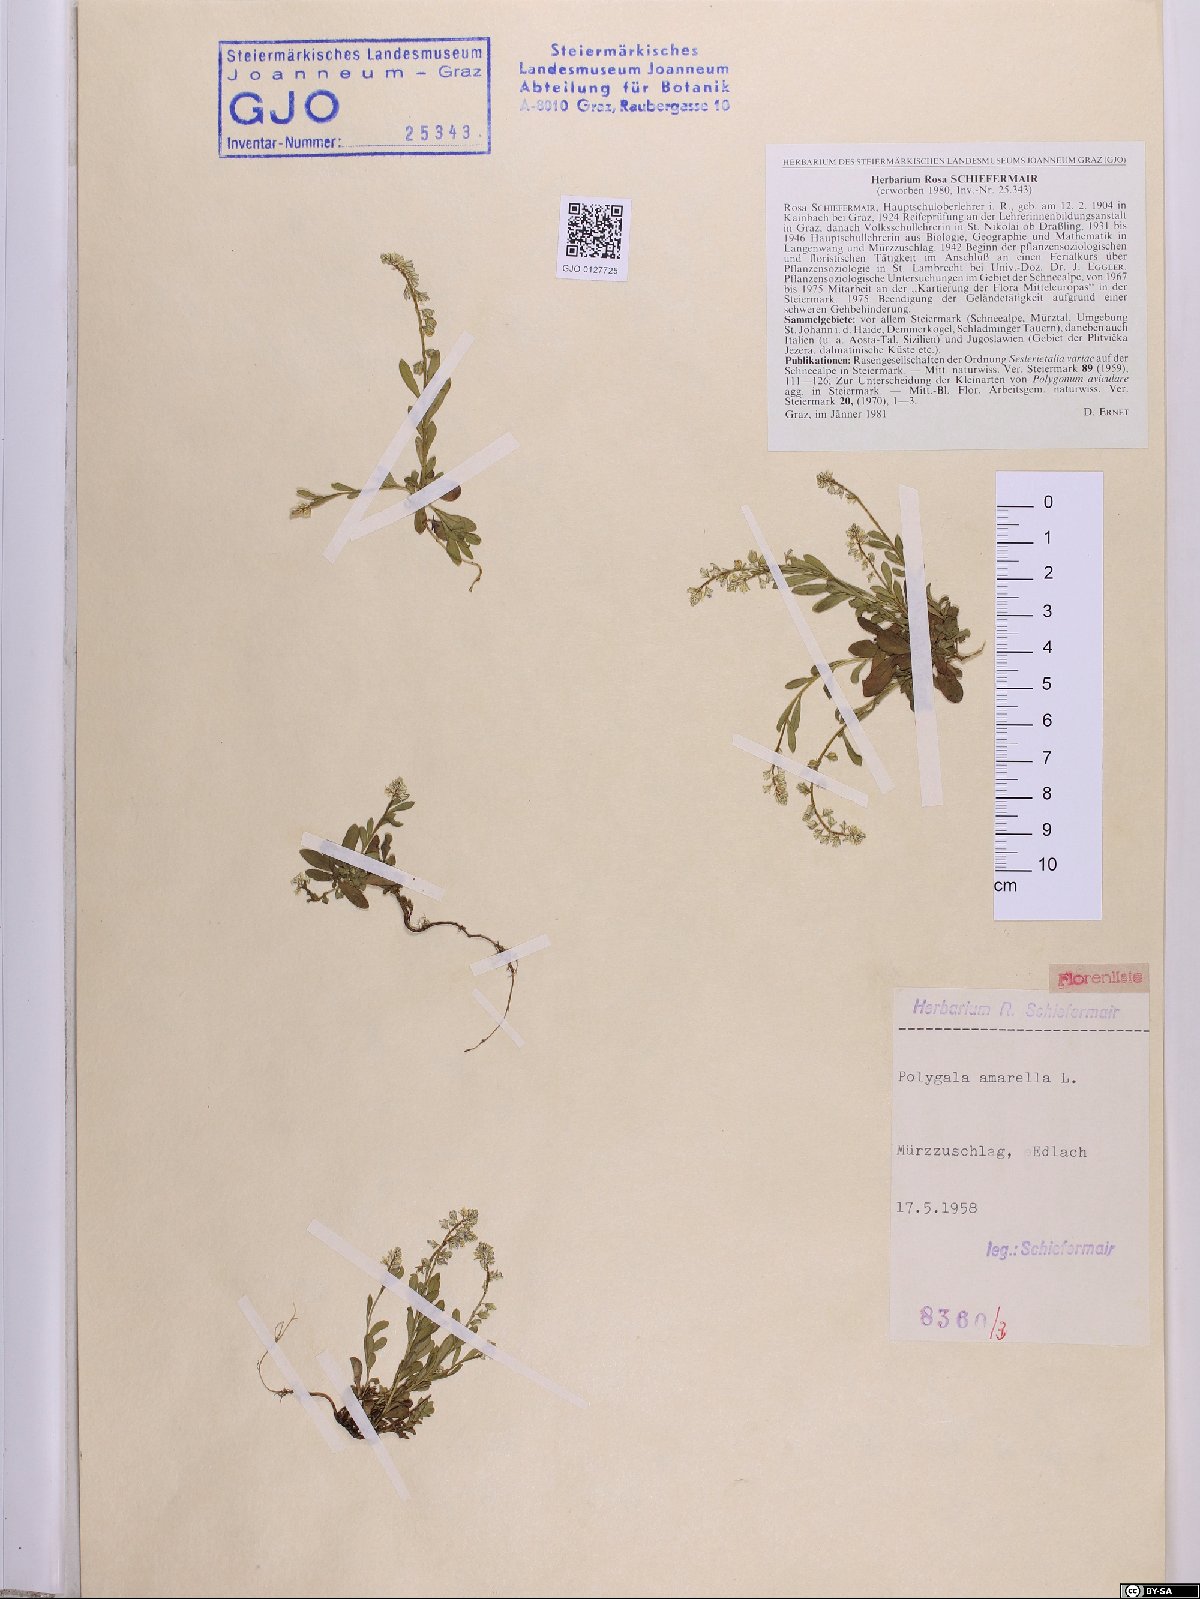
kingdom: Plantae
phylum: Tracheophyta
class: Magnoliopsida
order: Fabales
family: Polygalaceae
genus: Polygala
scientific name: Polygala amarella
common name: Dwarf milkwort
